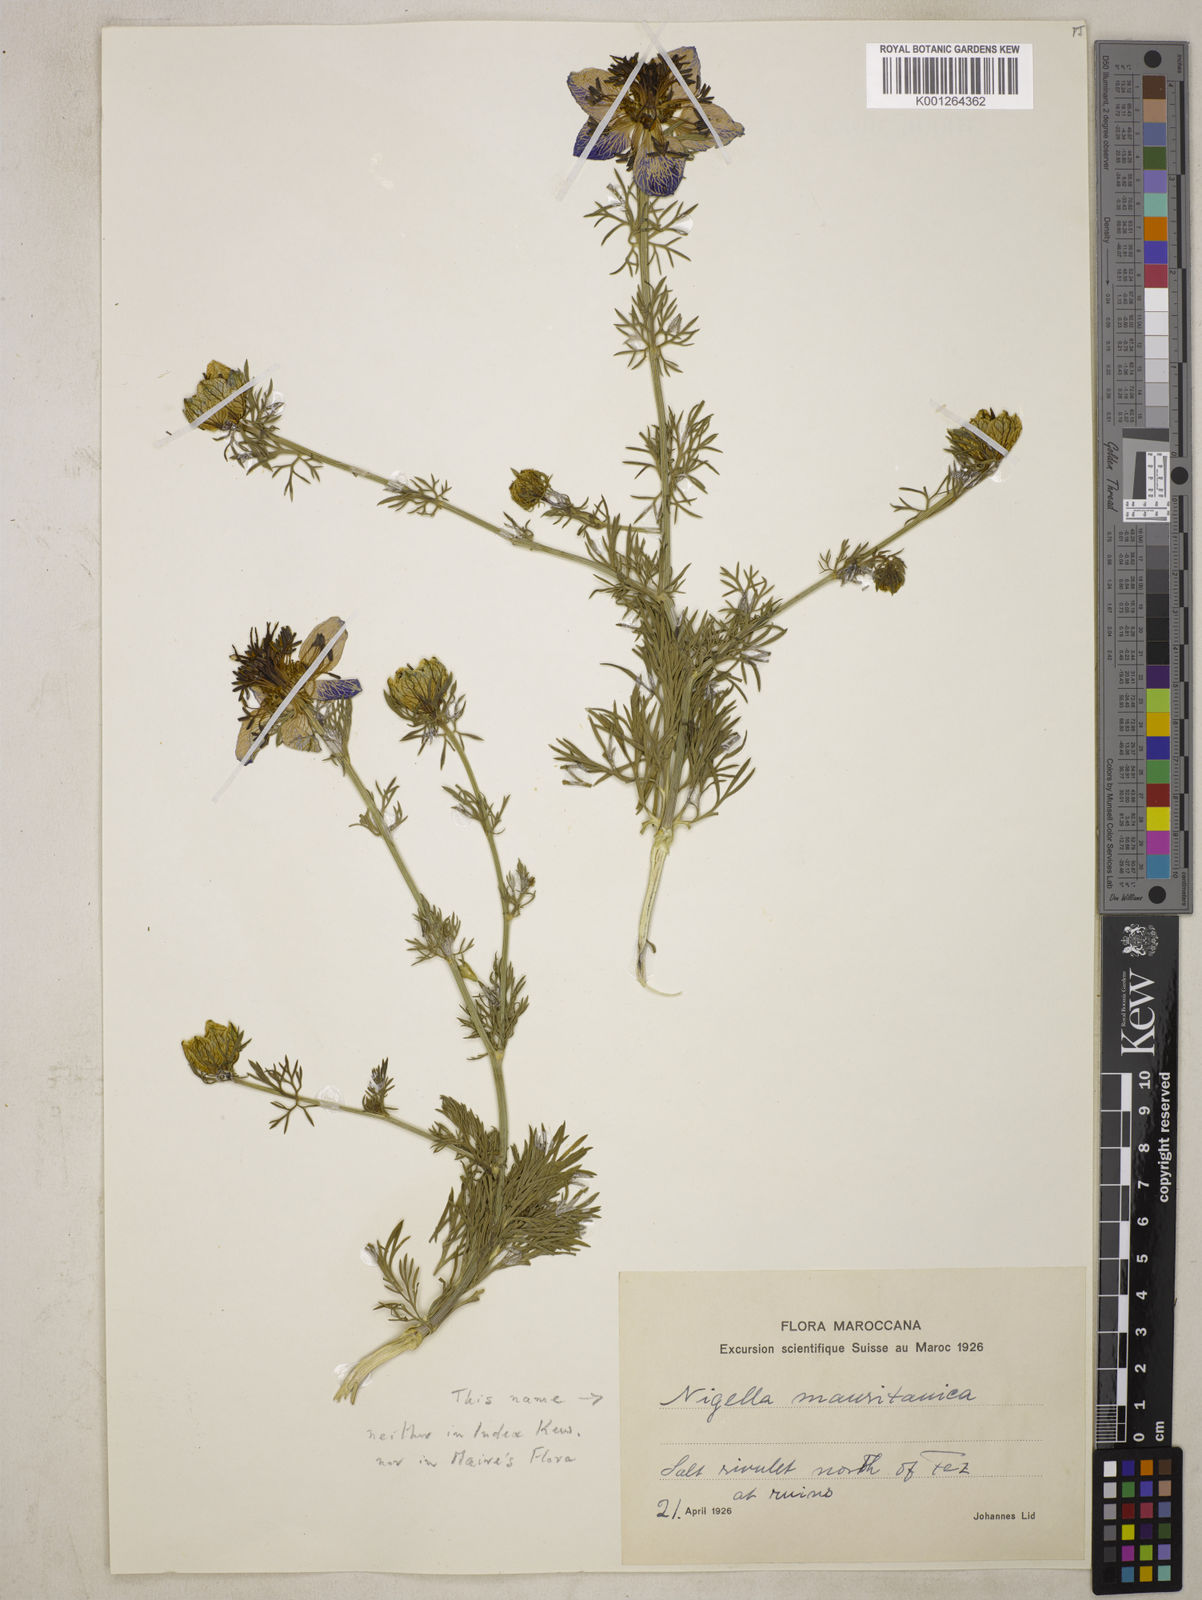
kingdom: Plantae
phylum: Tracheophyta
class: Magnoliopsida
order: Ranunculales
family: Ranunculaceae
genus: Nigella
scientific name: Nigella hispanica
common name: Fennel-flower
